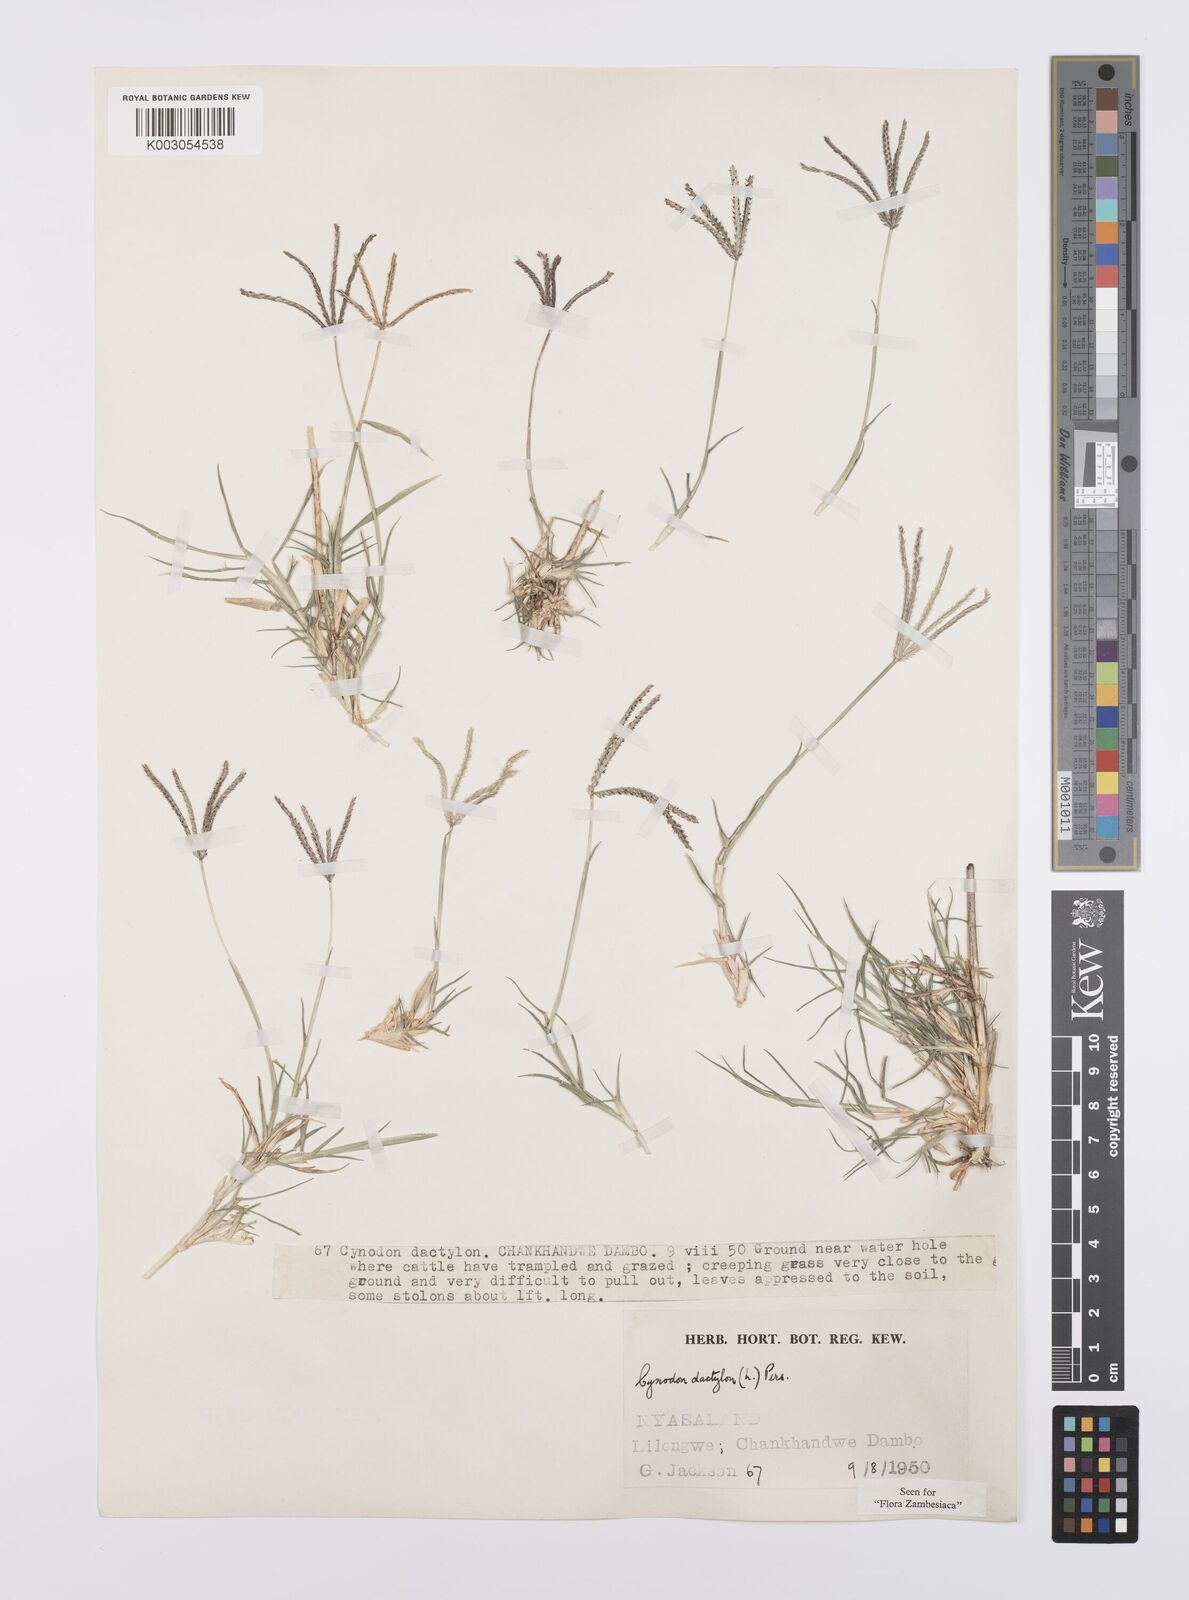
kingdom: Plantae
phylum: Tracheophyta
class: Liliopsida
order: Poales
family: Poaceae
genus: Cynodon
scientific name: Cynodon dactylon
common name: Bermuda grass
